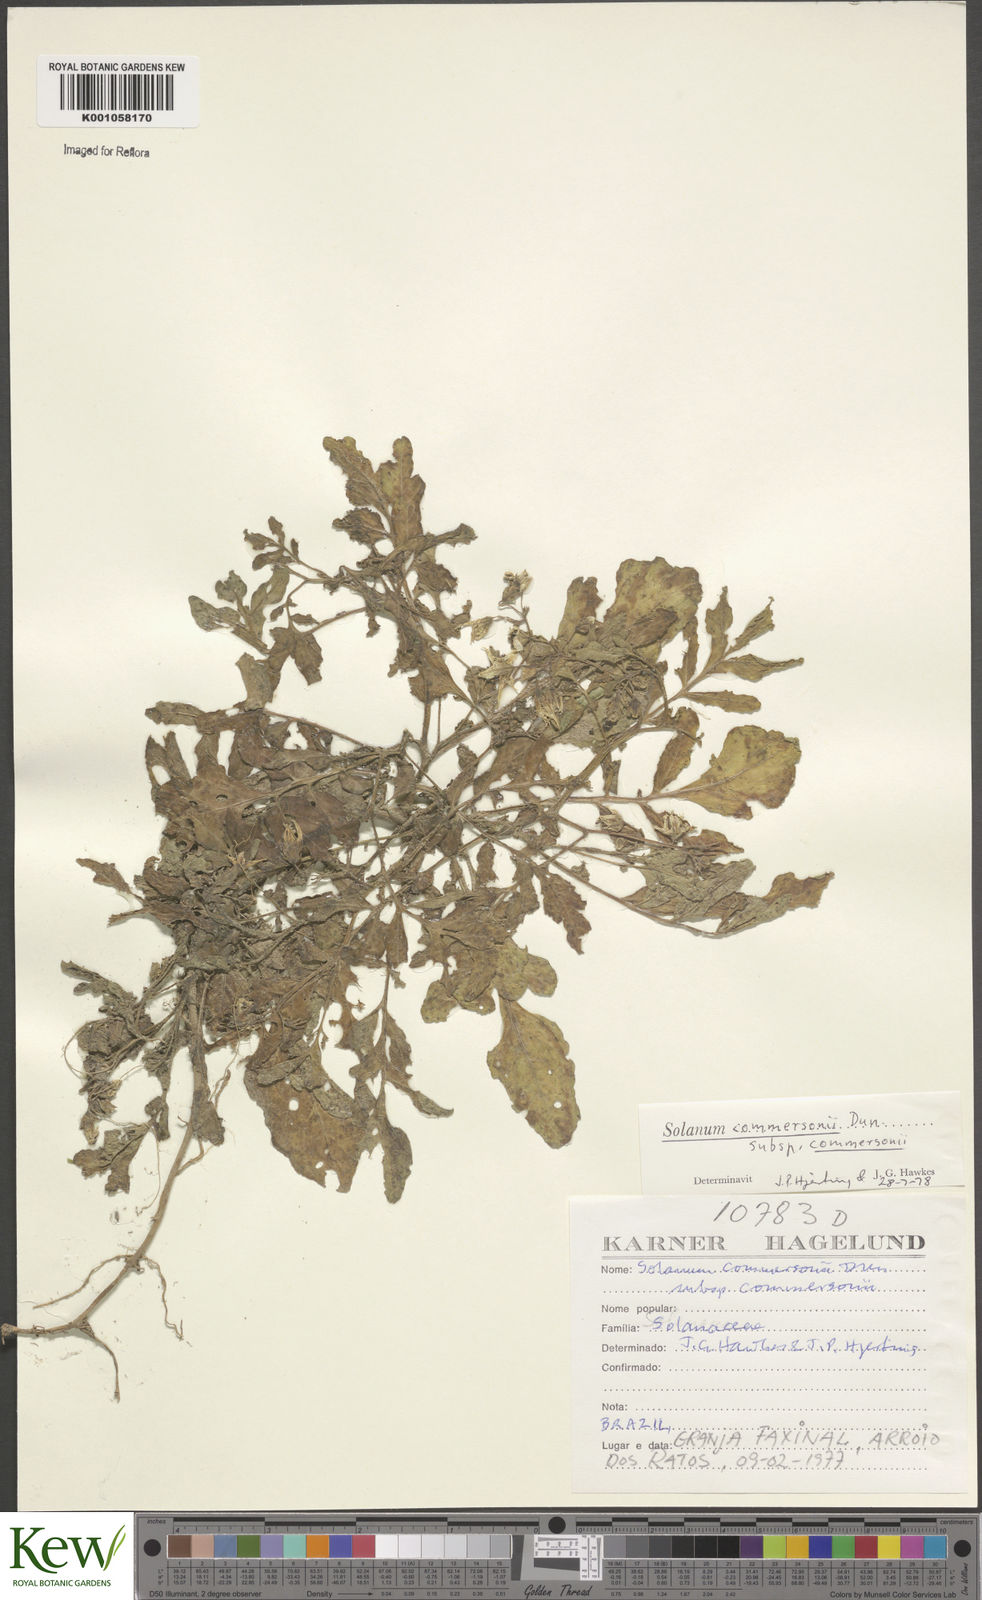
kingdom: Plantae
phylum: Tracheophyta
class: Magnoliopsida
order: Solanales
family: Solanaceae
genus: Solanum
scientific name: Solanum malmeanum
